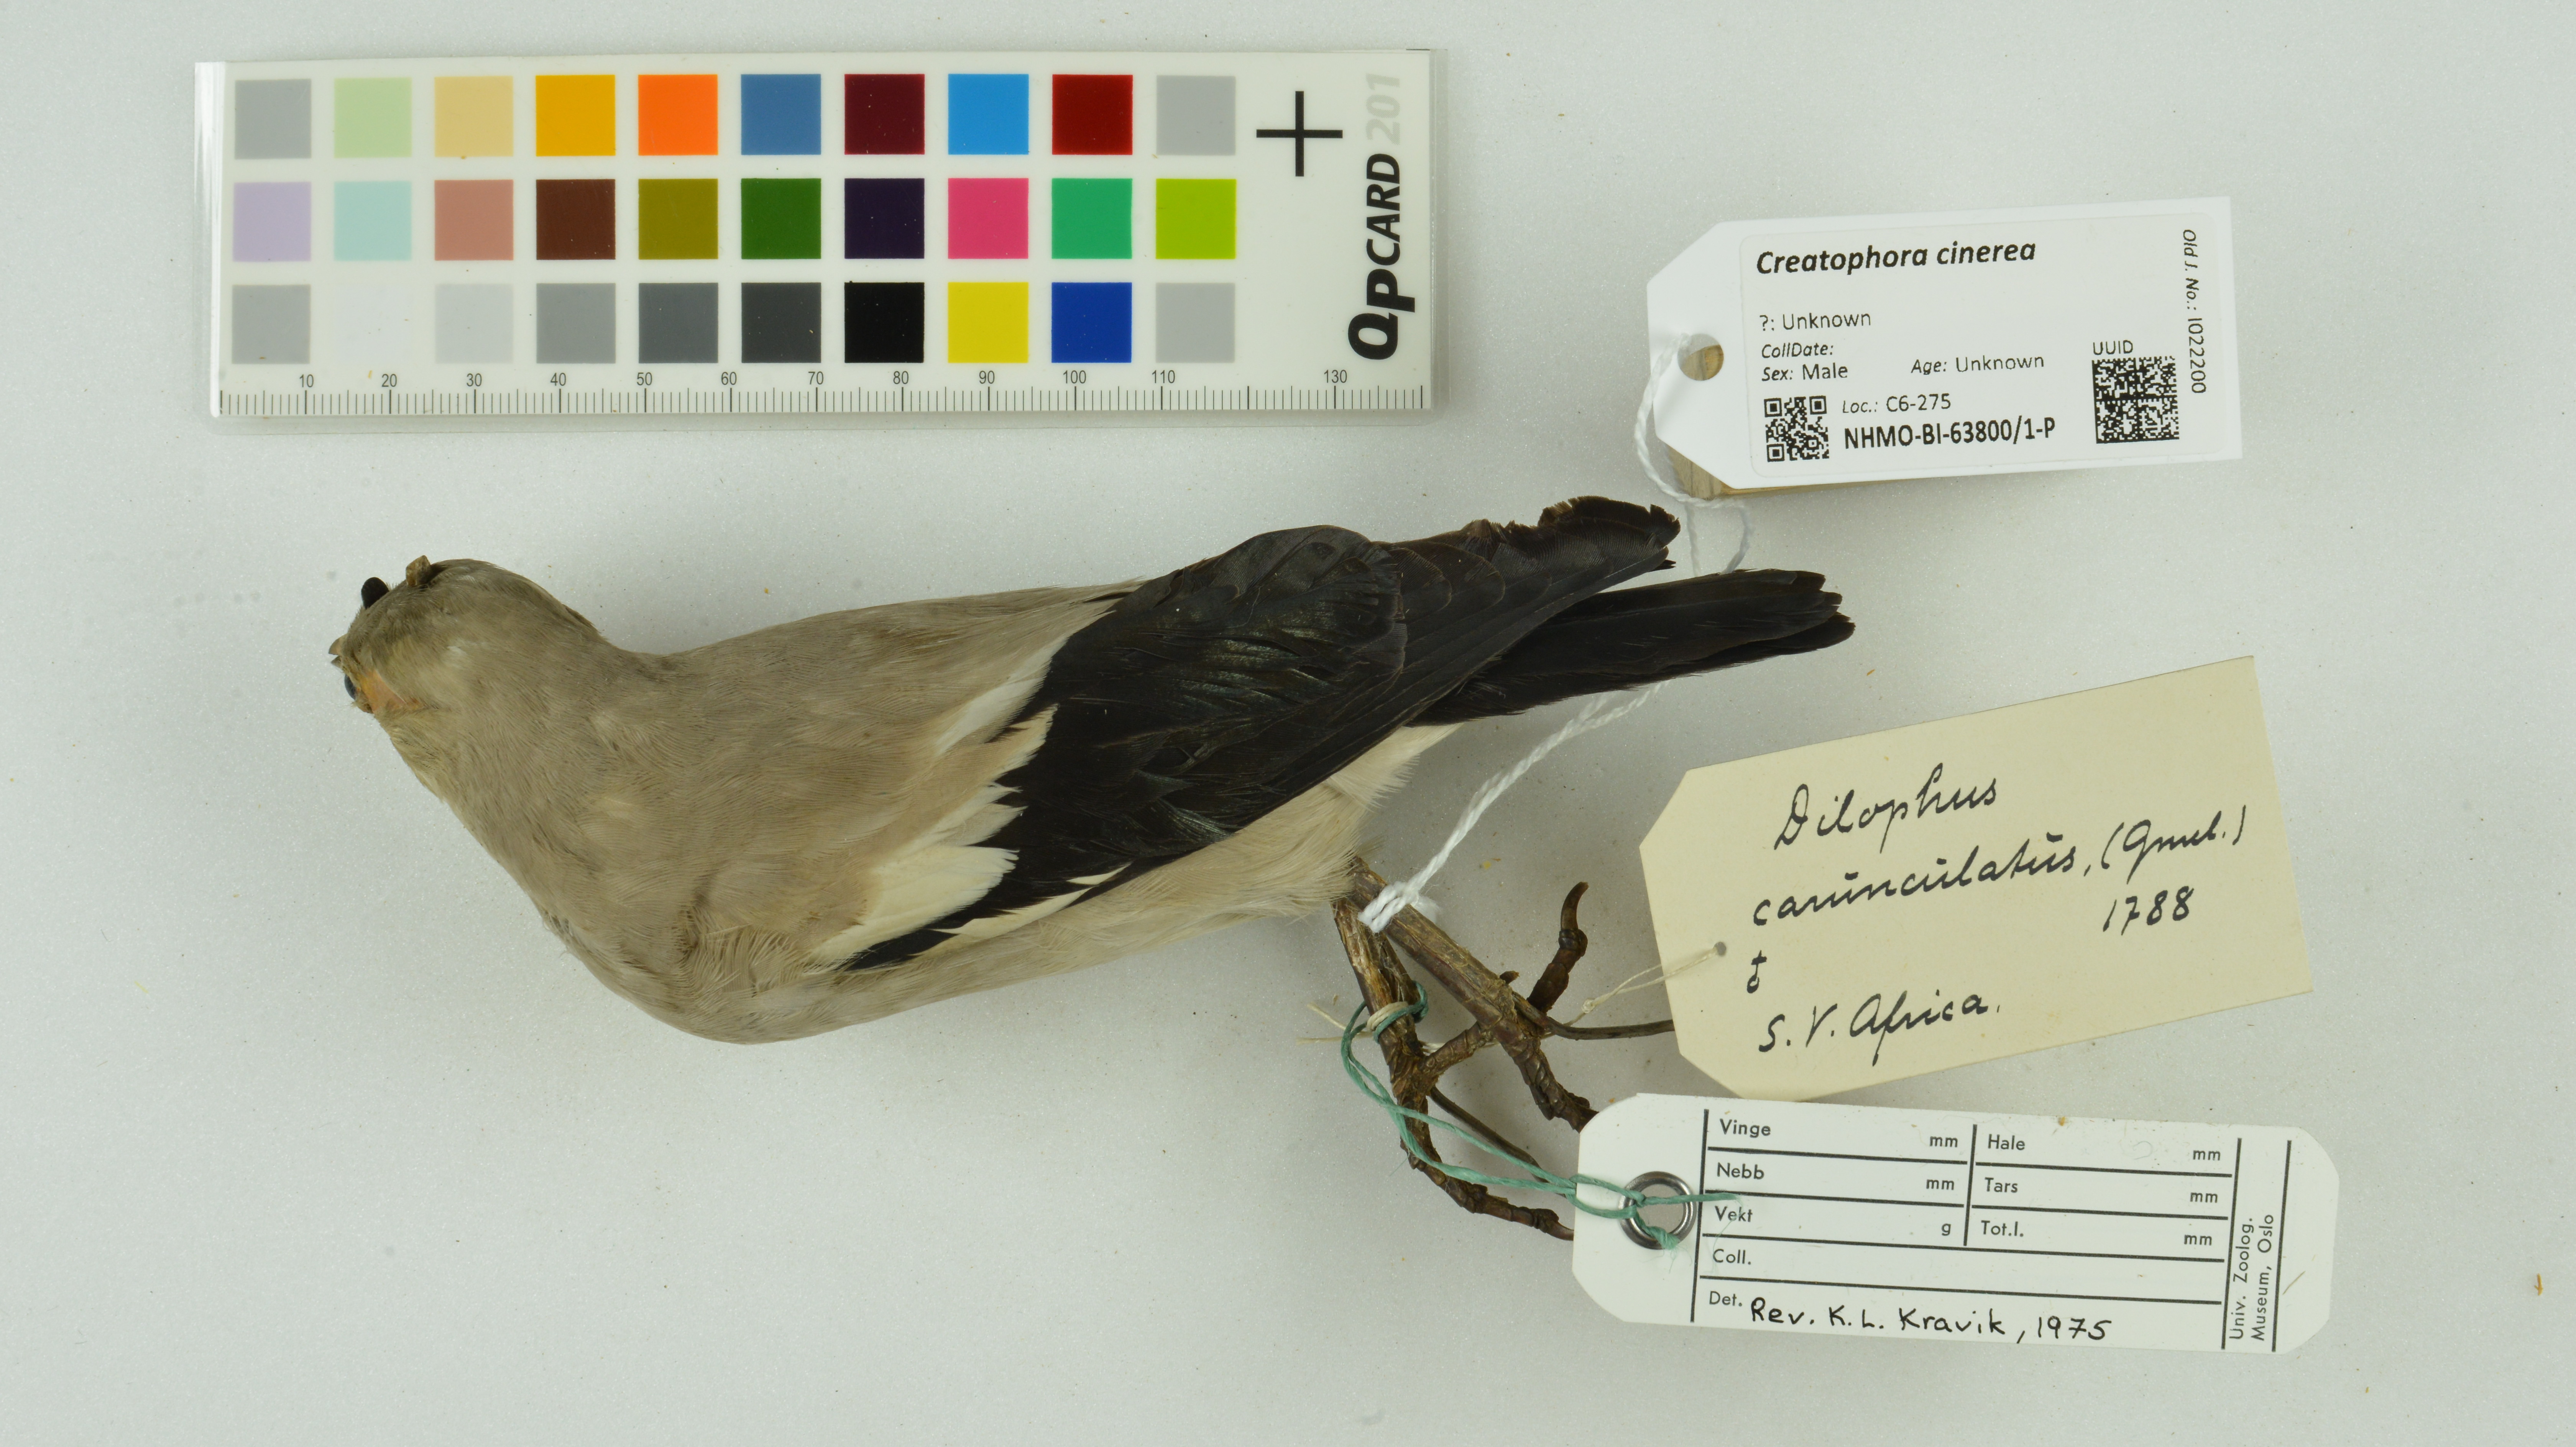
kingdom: Animalia
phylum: Chordata
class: Aves
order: Passeriformes
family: Sturnidae
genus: Creatophora
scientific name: Creatophora cinerea
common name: Wattled starling
